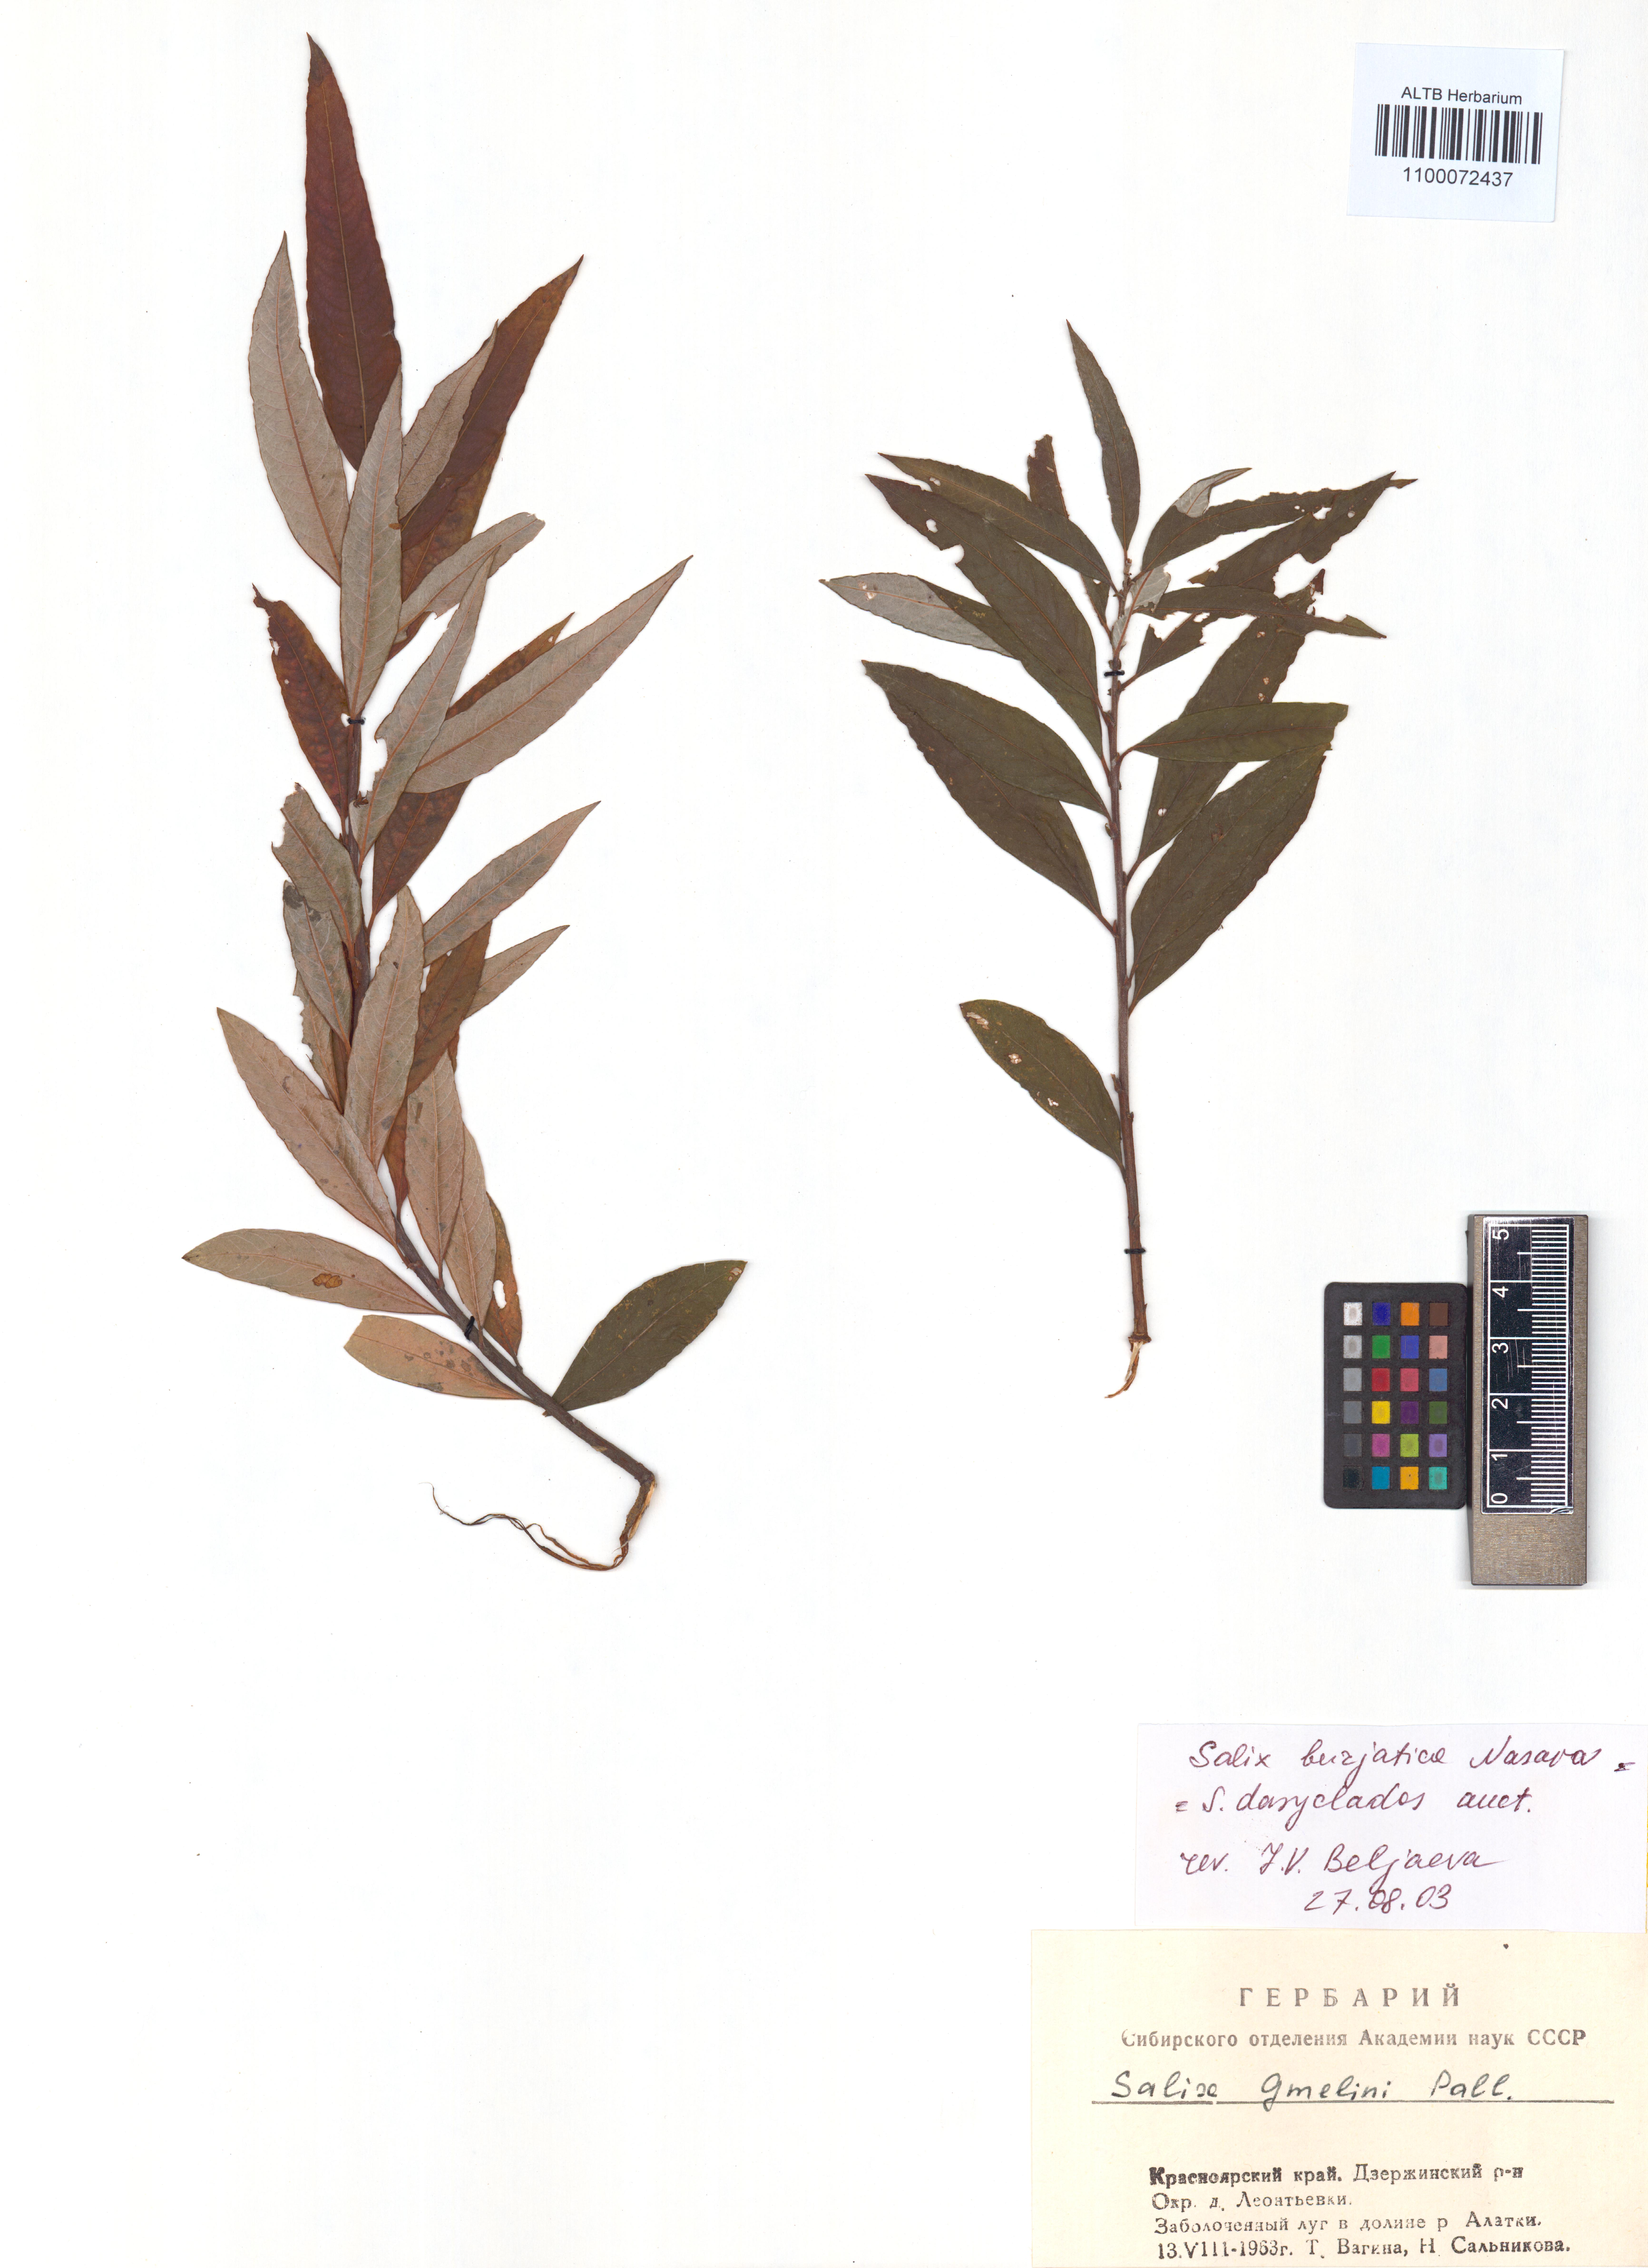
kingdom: Plantae
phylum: Tracheophyta
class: Magnoliopsida
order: Malpighiales
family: Salicaceae
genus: Salix
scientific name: Salix gmelinii
